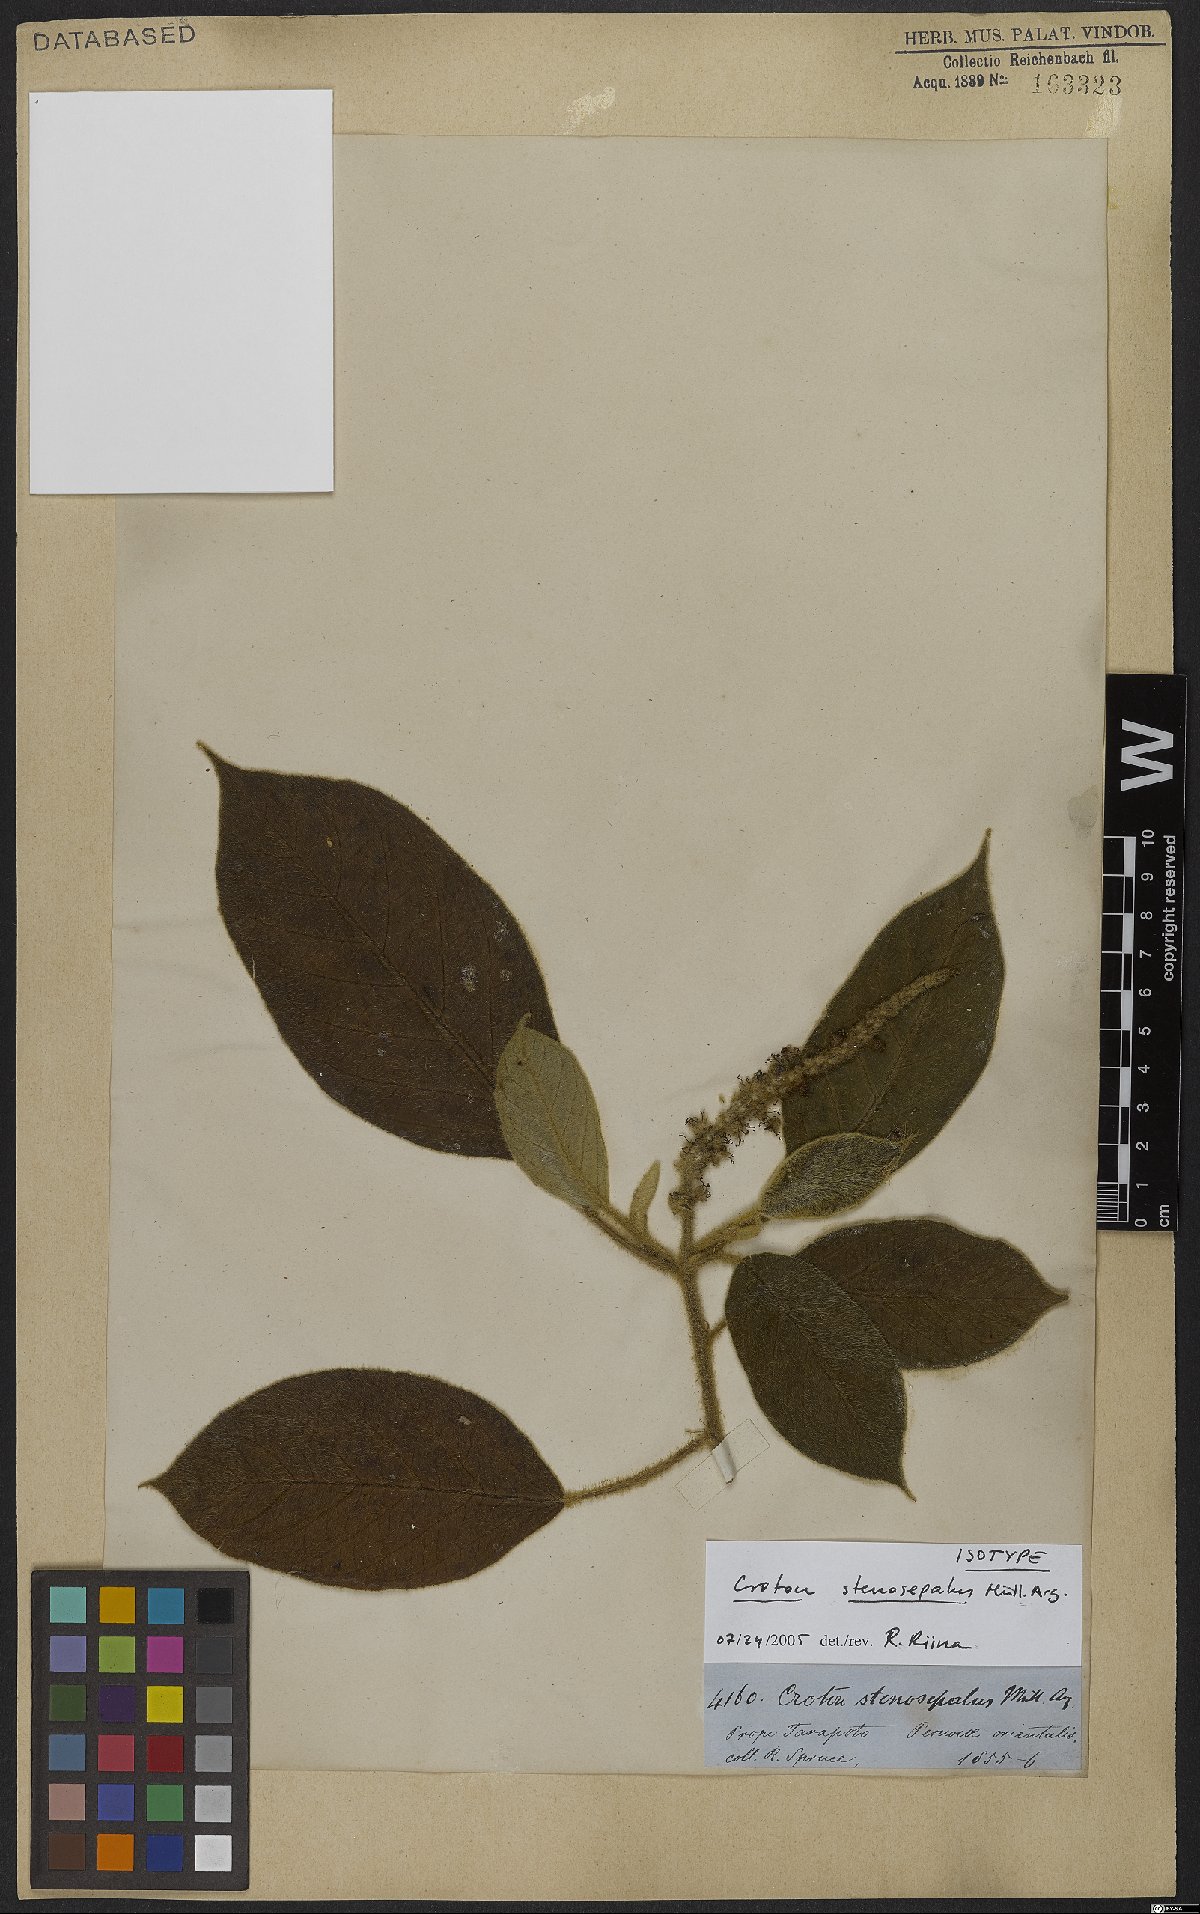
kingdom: Plantae
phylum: Tracheophyta
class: Magnoliopsida
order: Malpighiales
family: Euphorbiaceae
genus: Croton
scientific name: Croton stenosepalus
